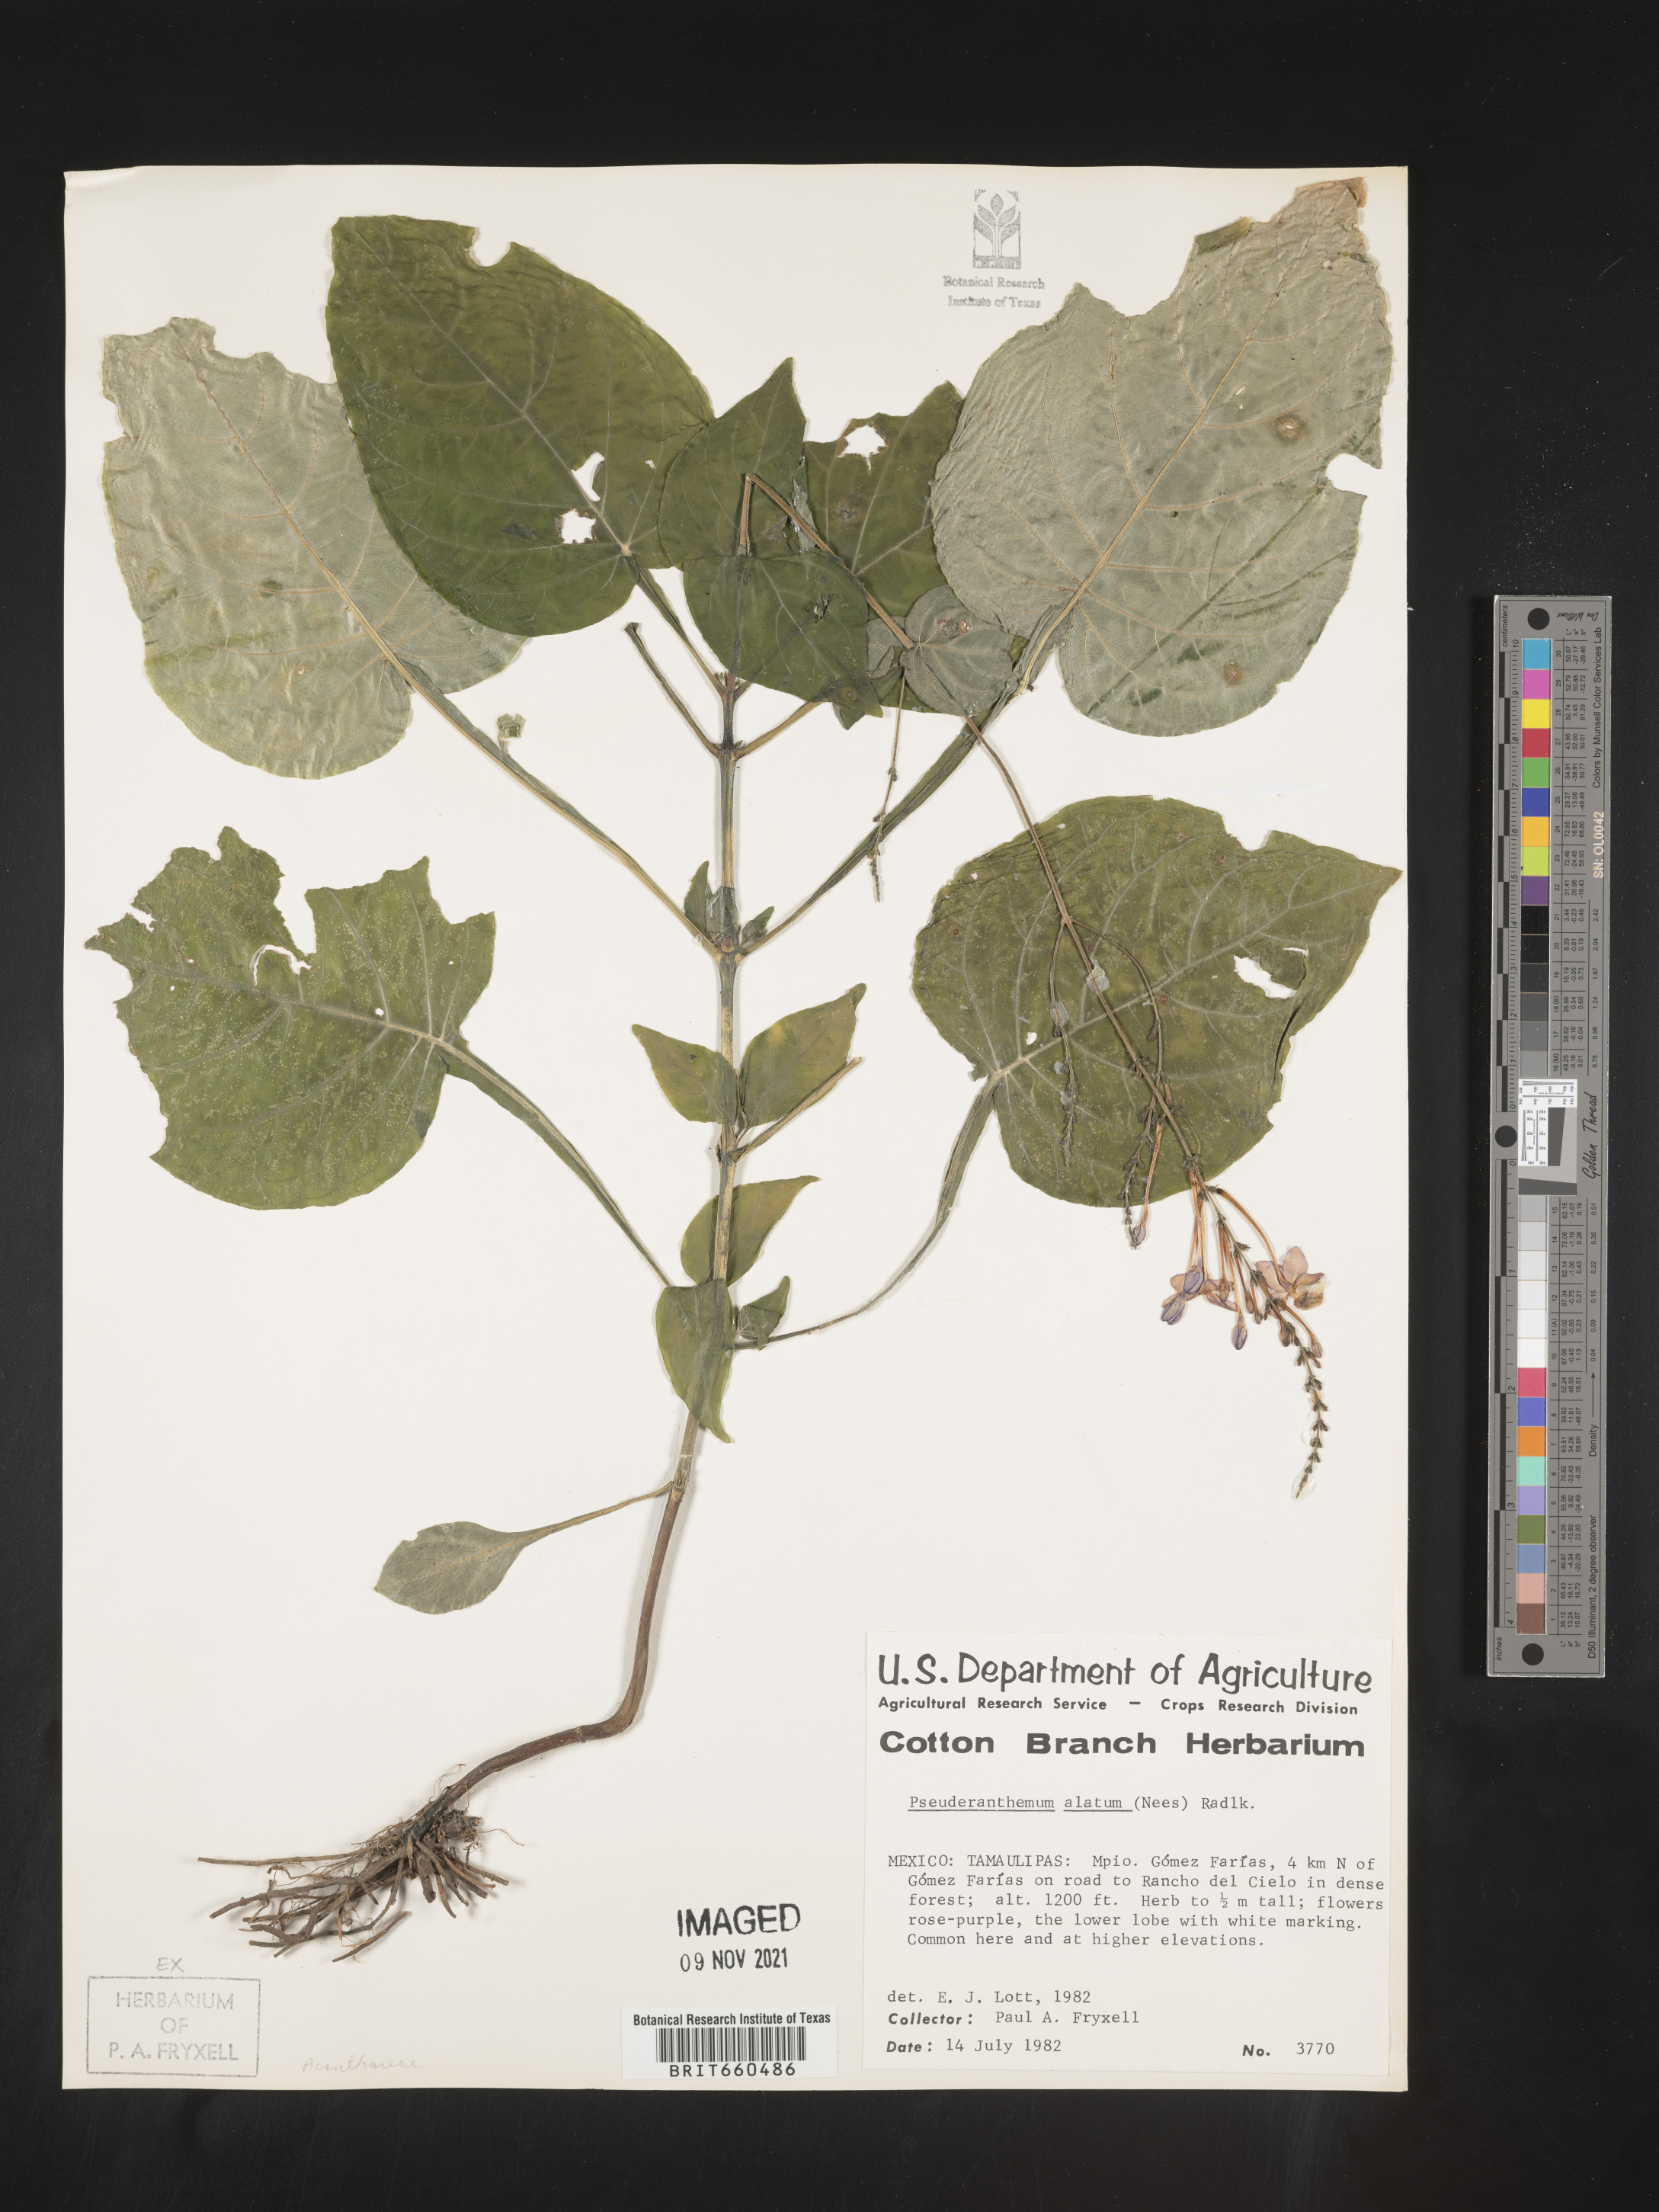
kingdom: Plantae
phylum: Tracheophyta
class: Magnoliopsida
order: Lamiales
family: Acanthaceae
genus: Pseuderanthemum
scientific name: Pseuderanthemum
